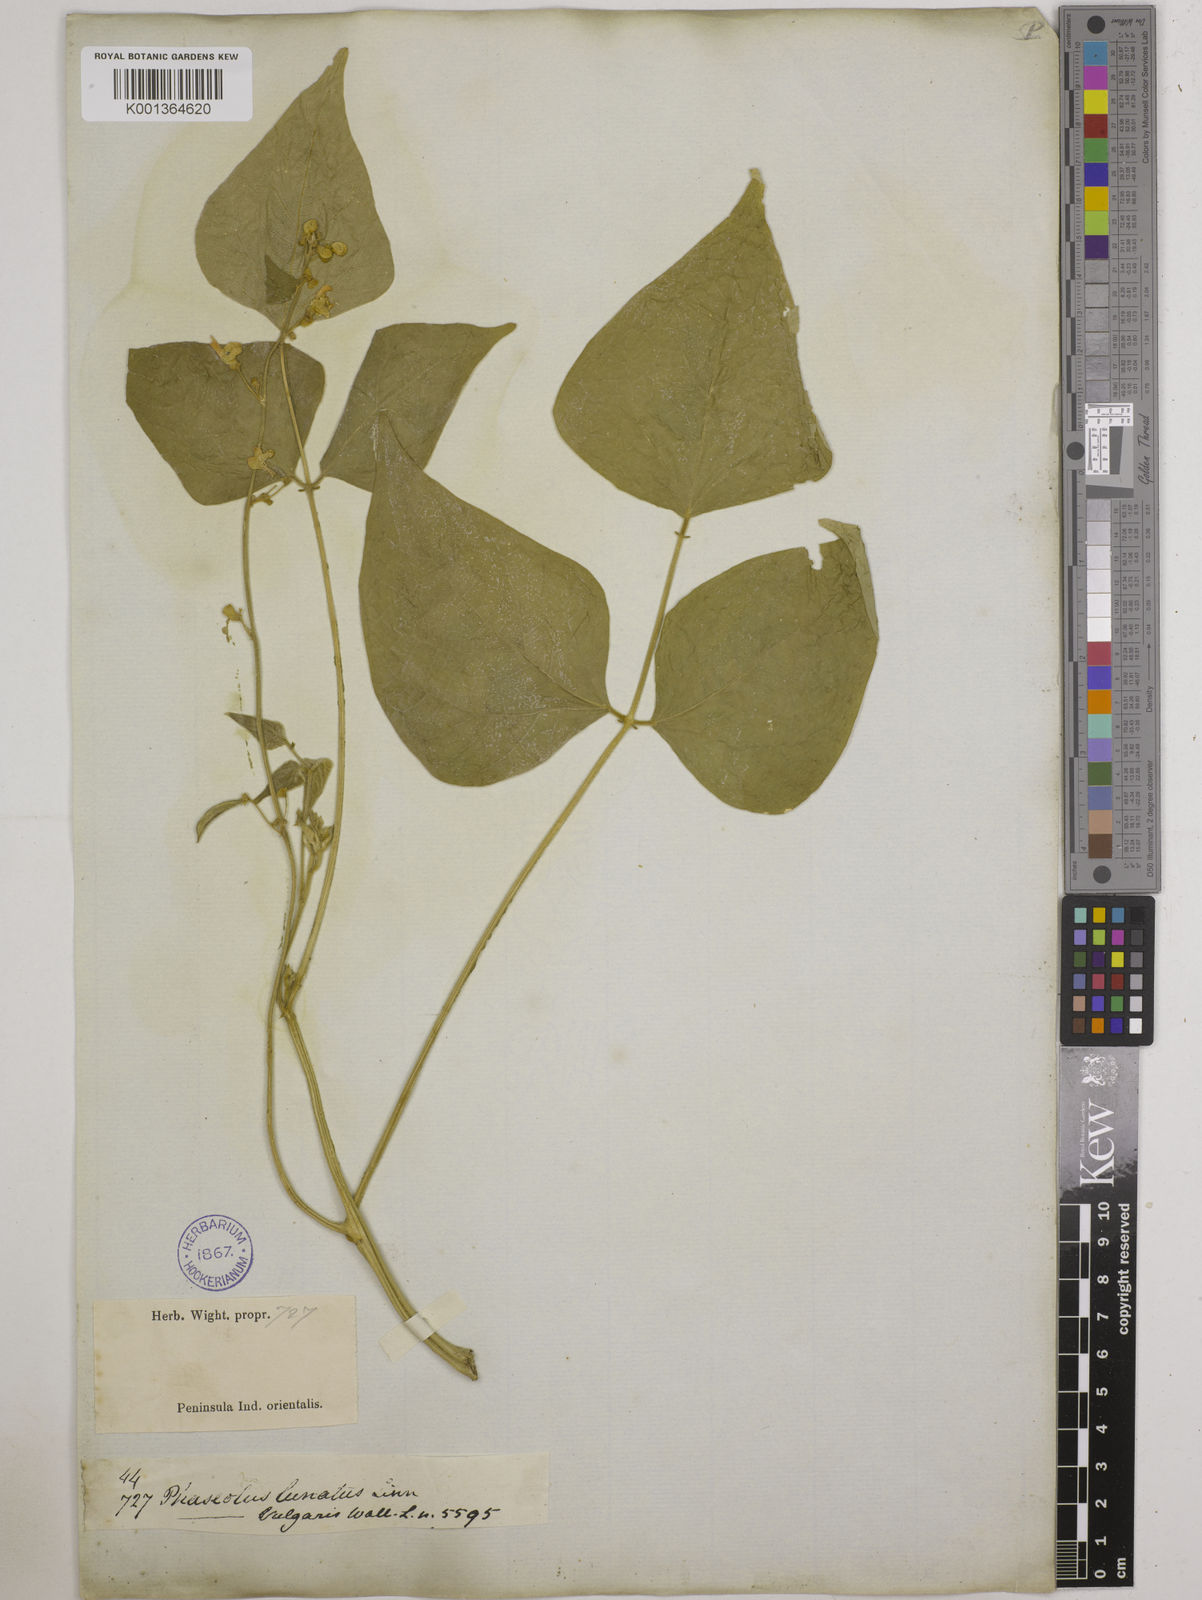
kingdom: Plantae
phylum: Tracheophyta
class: Magnoliopsida
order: Fabales
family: Fabaceae
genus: Phaseolus
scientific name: Phaseolus lunatus
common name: Sieva bean
